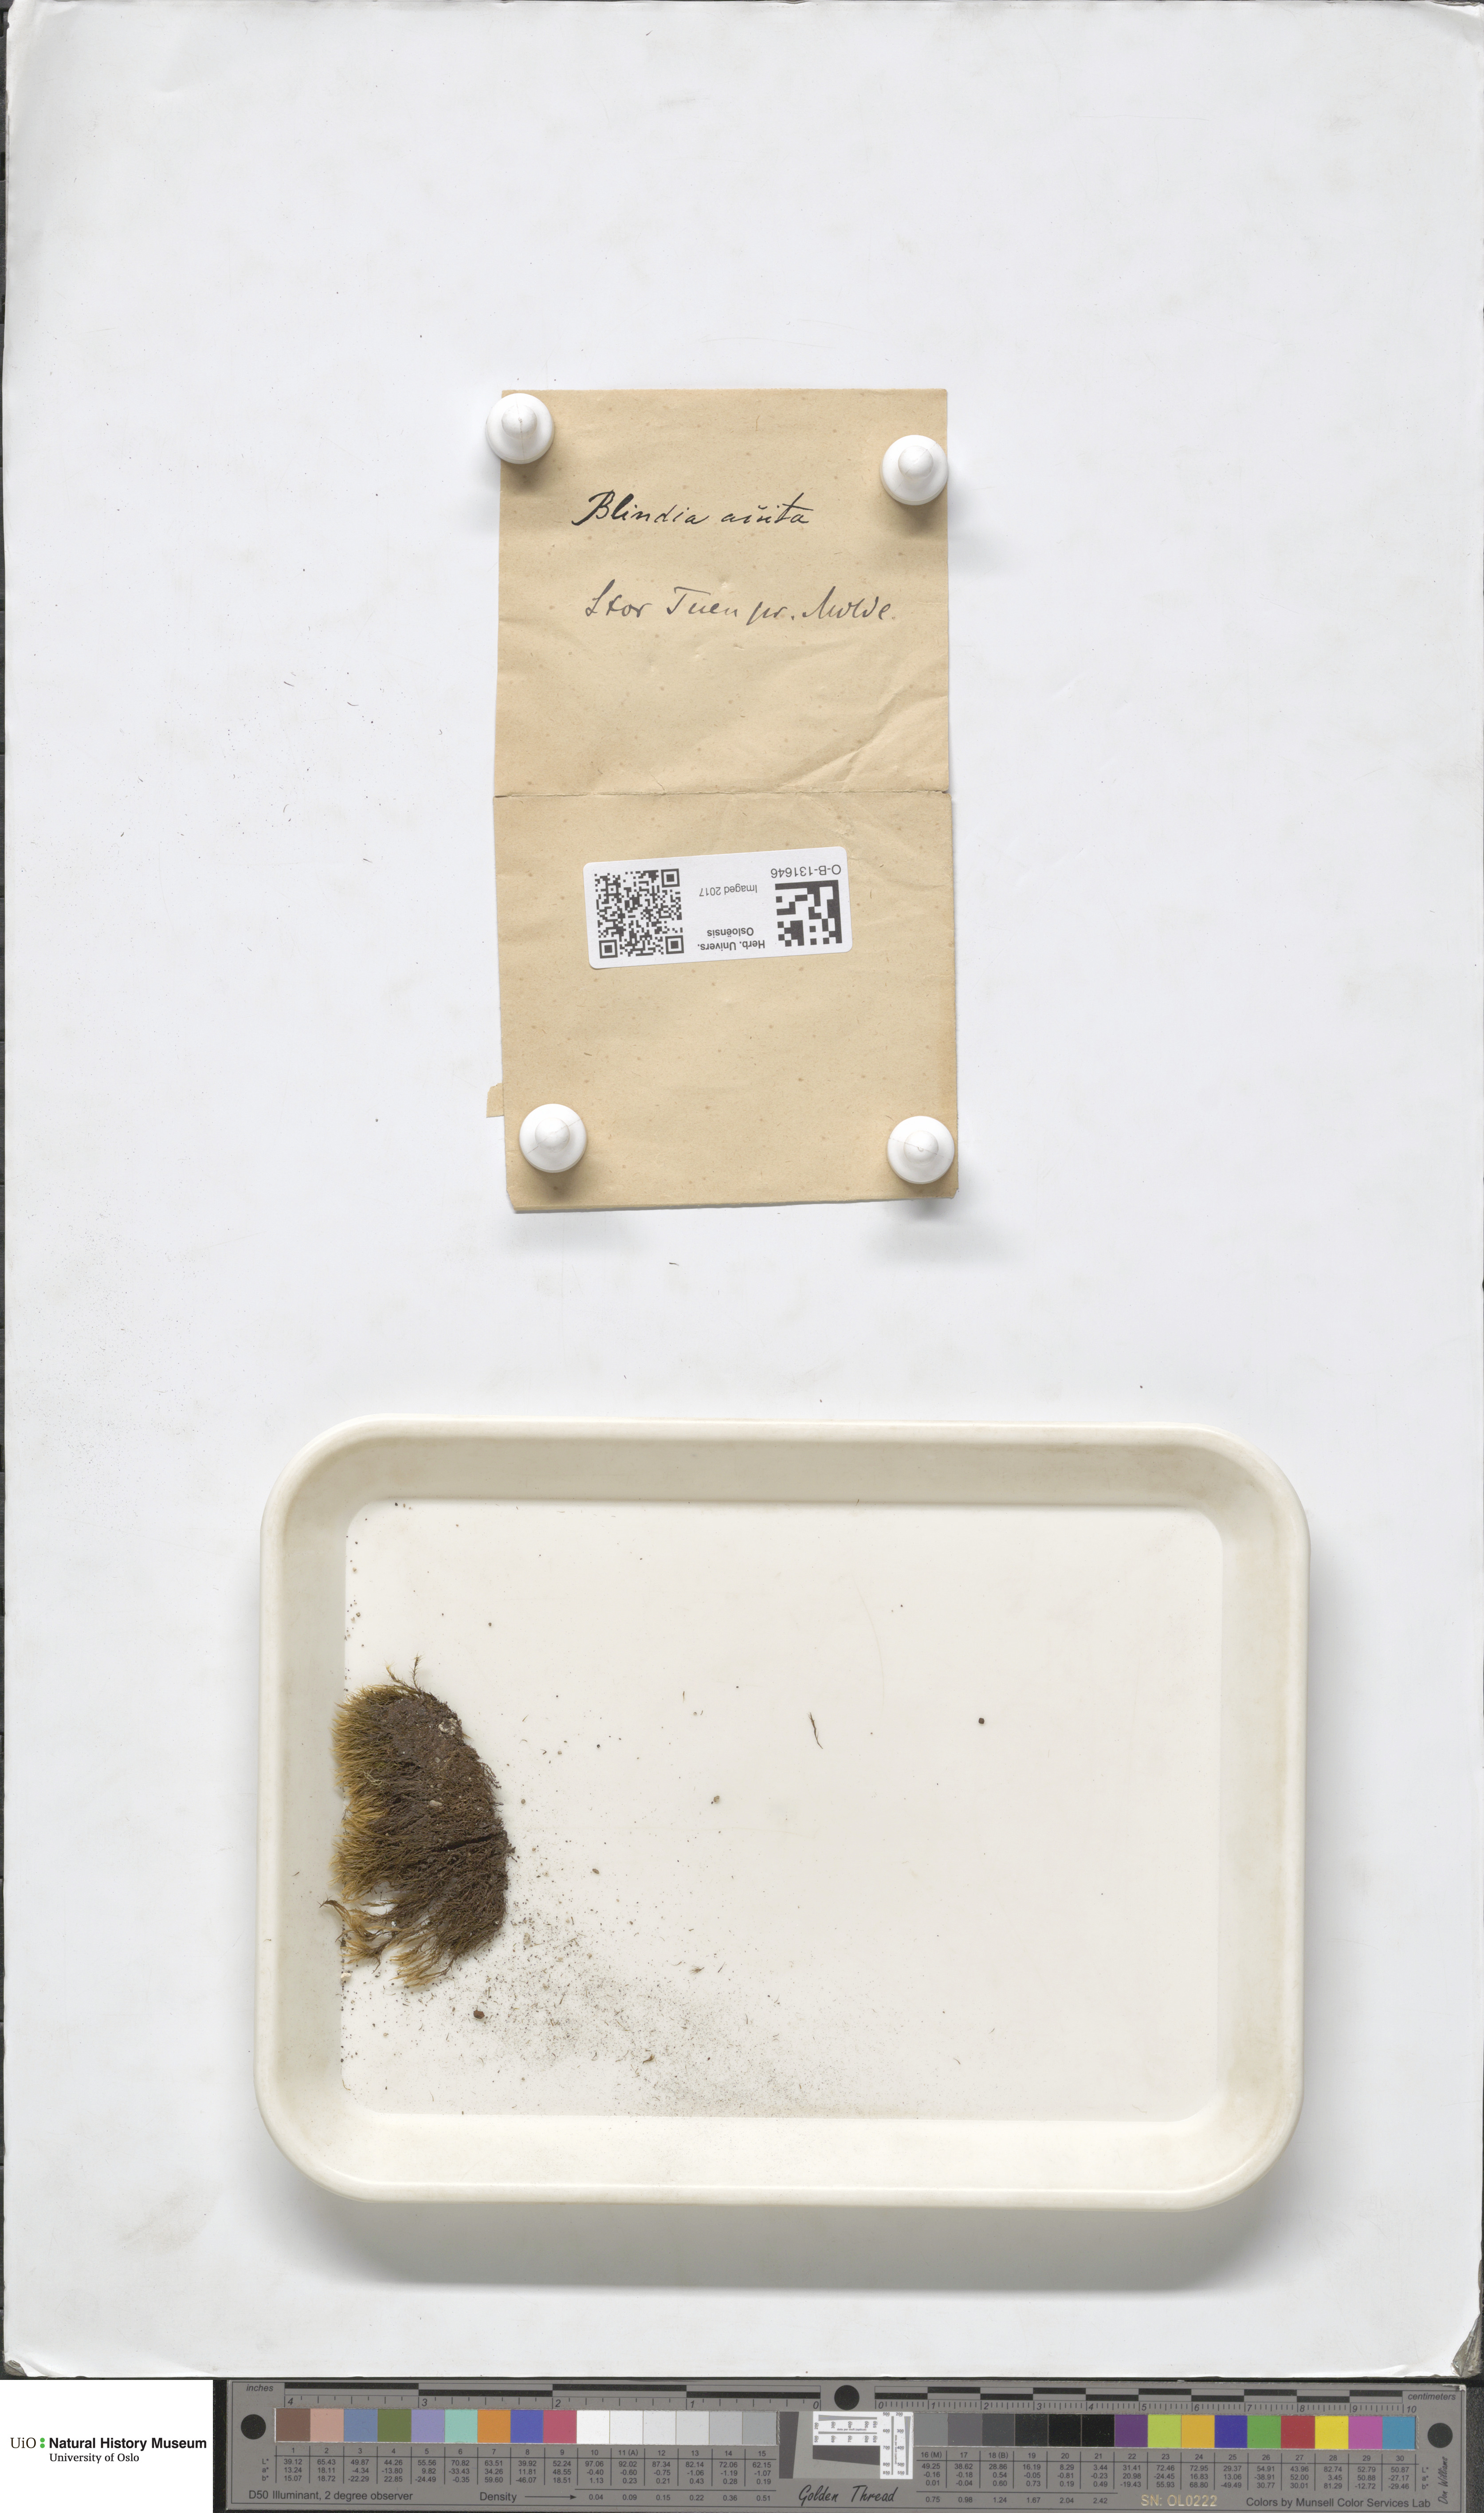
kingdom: Plantae
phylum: Bryophyta
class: Bryopsida
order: Grimmiales
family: Seligeriaceae
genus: Blindia
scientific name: Blindia acuta
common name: Sharp-leaved blind's moss
